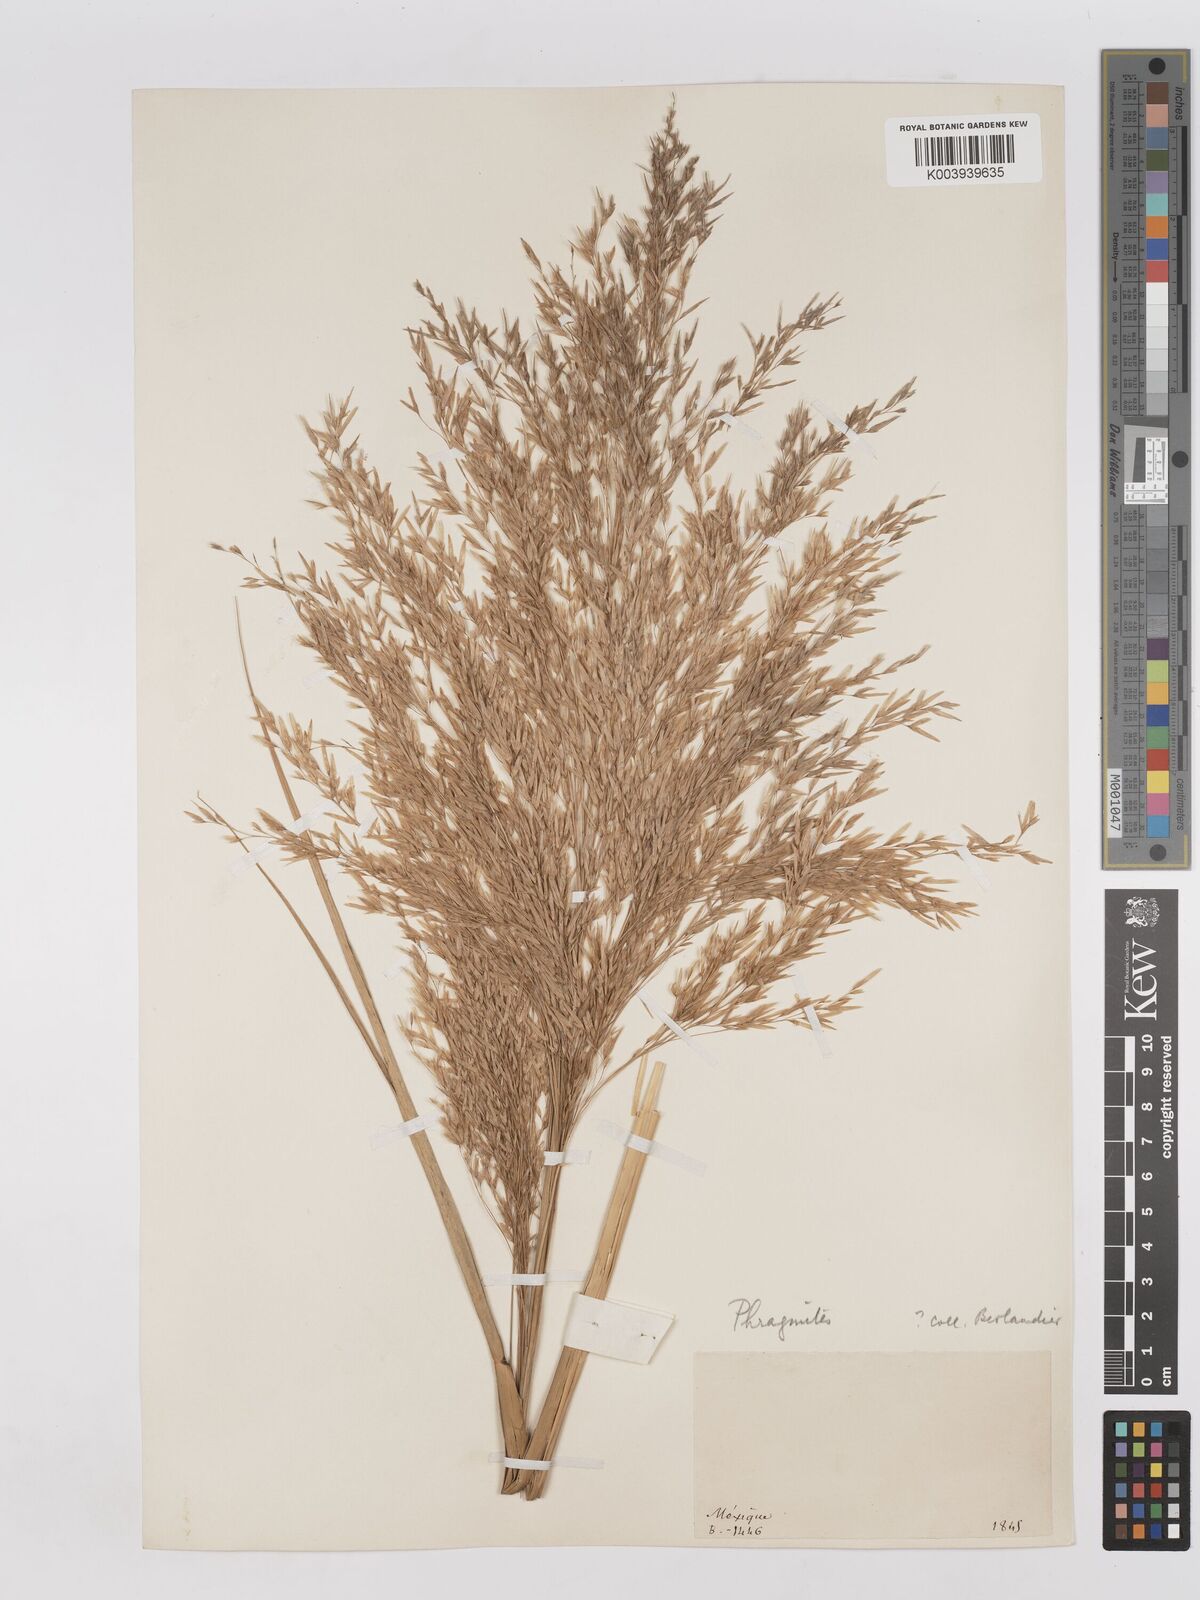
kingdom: Plantae
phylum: Tracheophyta
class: Liliopsida
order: Poales
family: Poaceae
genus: Phragmites
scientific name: Phragmites australis
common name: Common reed
